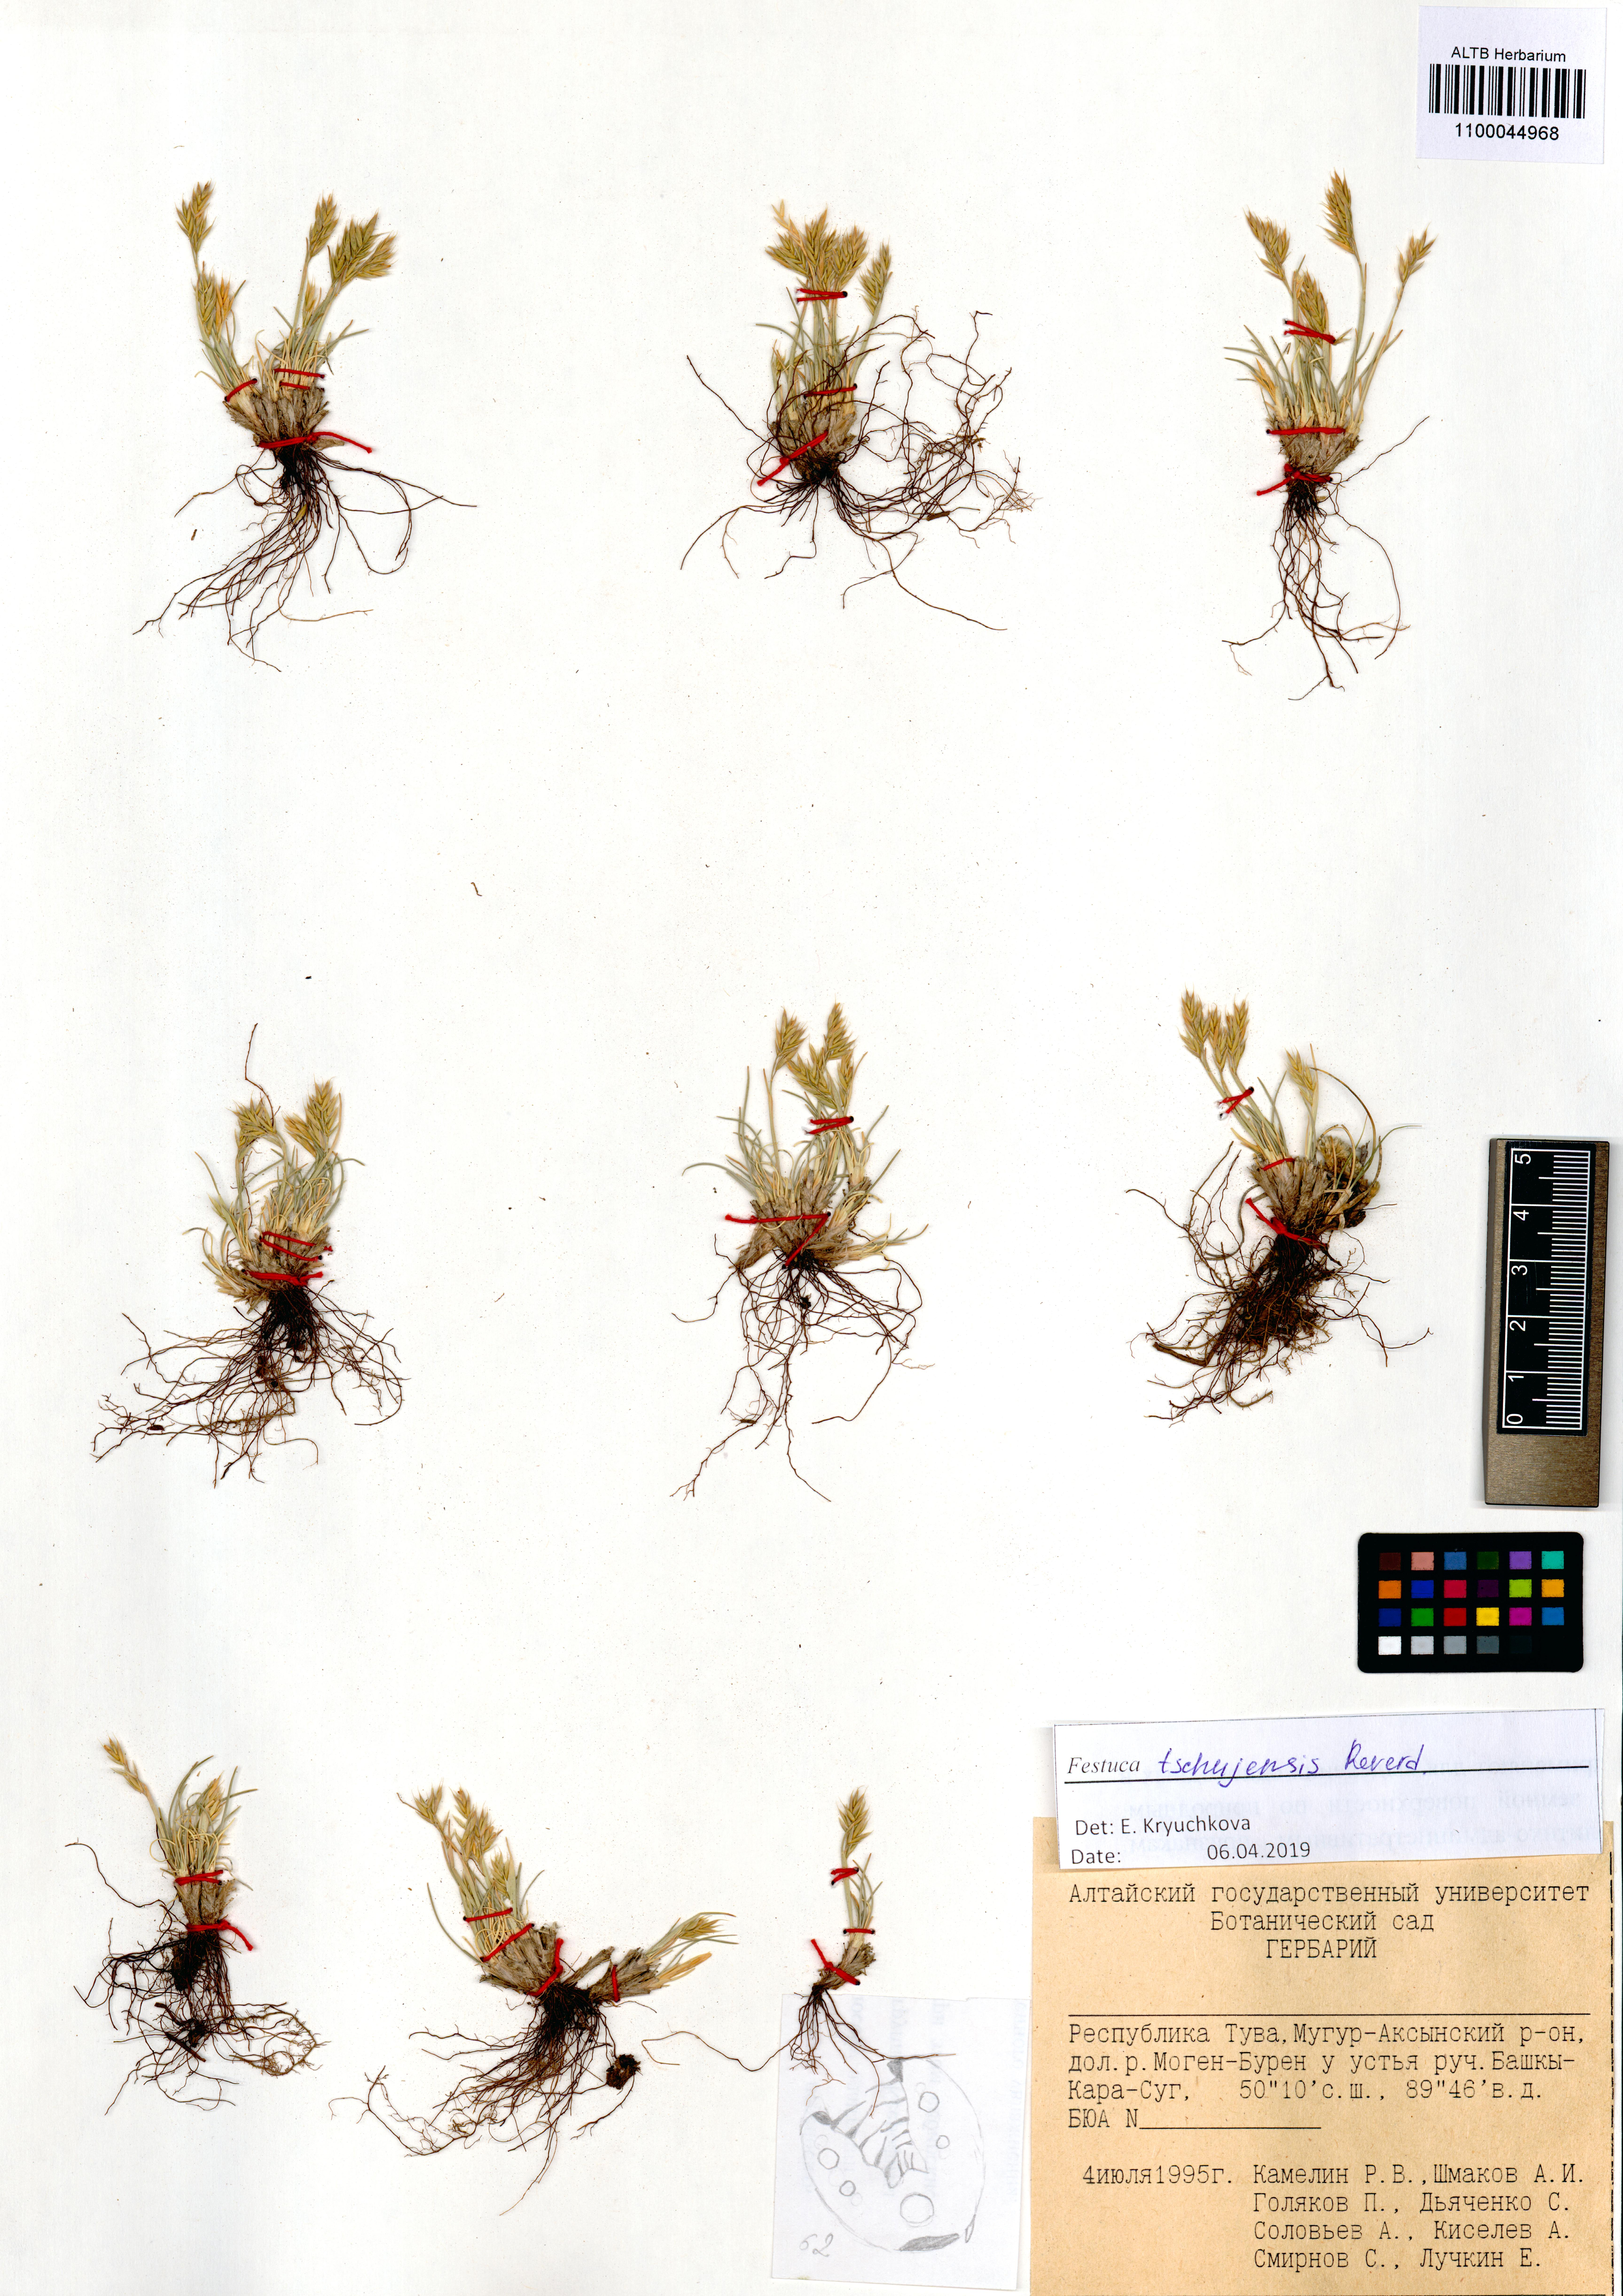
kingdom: Plantae
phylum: Tracheophyta
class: Liliopsida
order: Poales
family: Poaceae
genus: Festuca
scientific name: Festuca tschujensis
